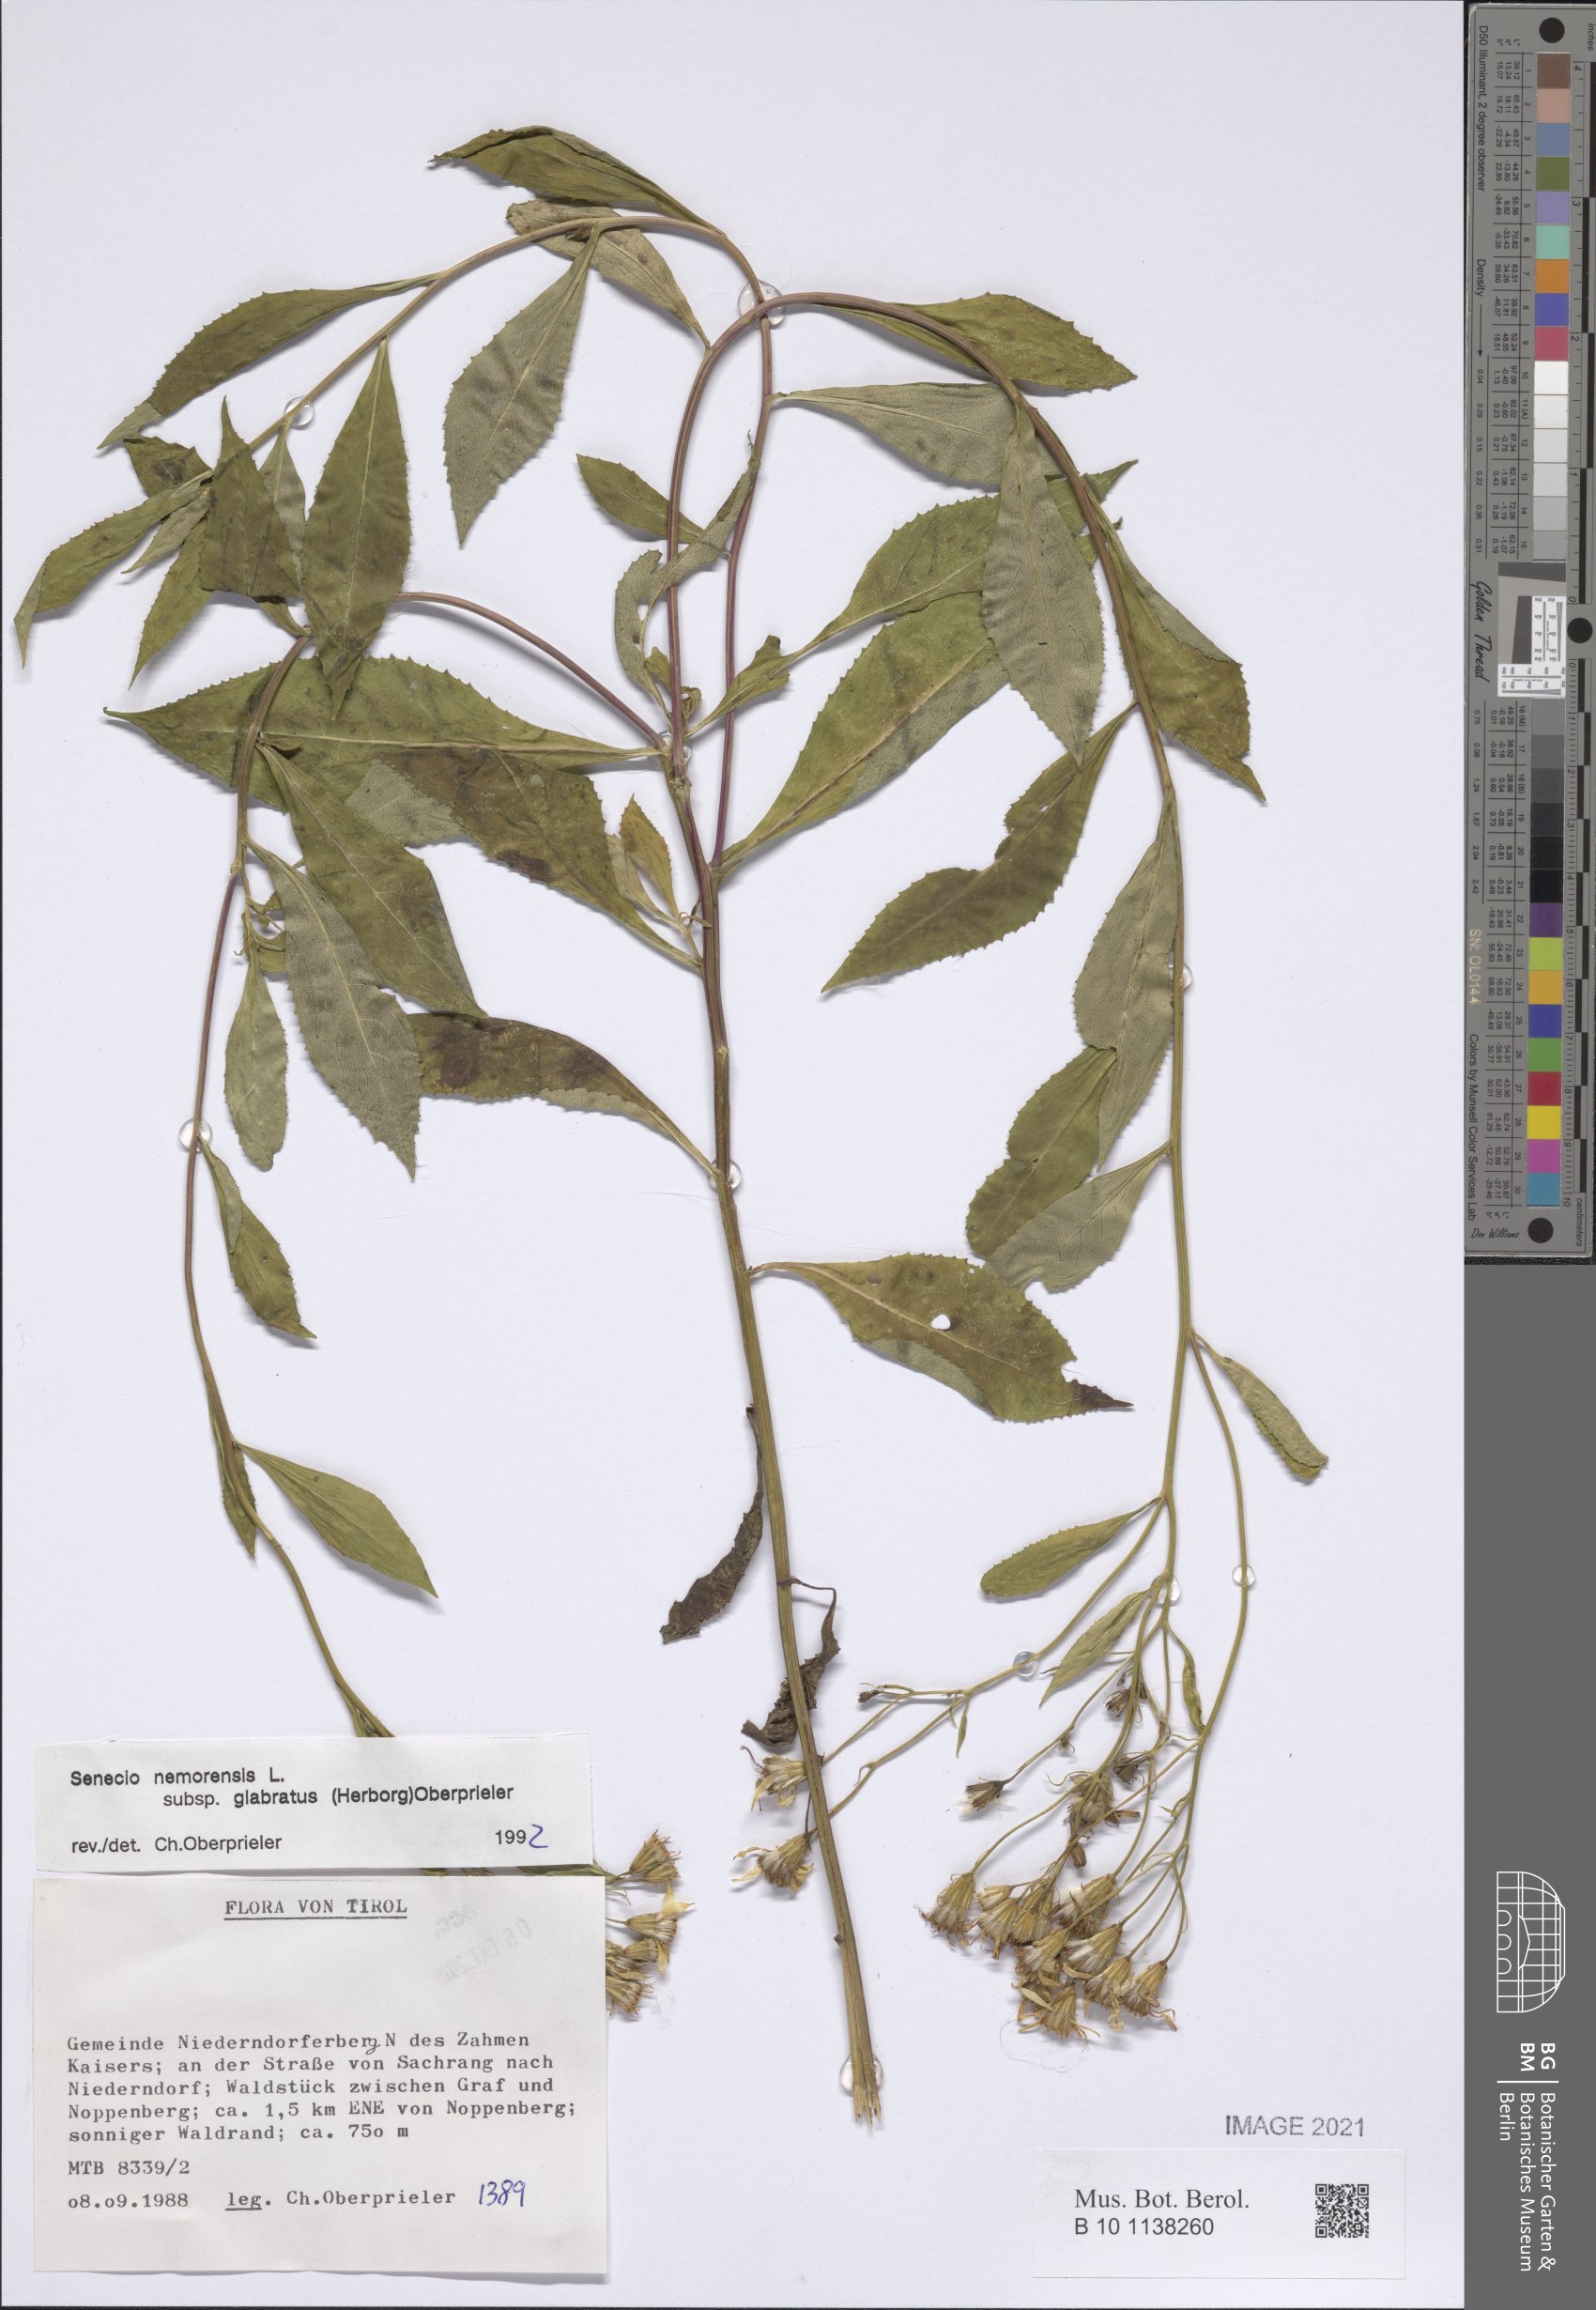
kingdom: Plantae
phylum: Tracheophyta
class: Magnoliopsida
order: Asterales
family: Asteraceae
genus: Senecio
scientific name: Senecio ovatus
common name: Wood ragwort
